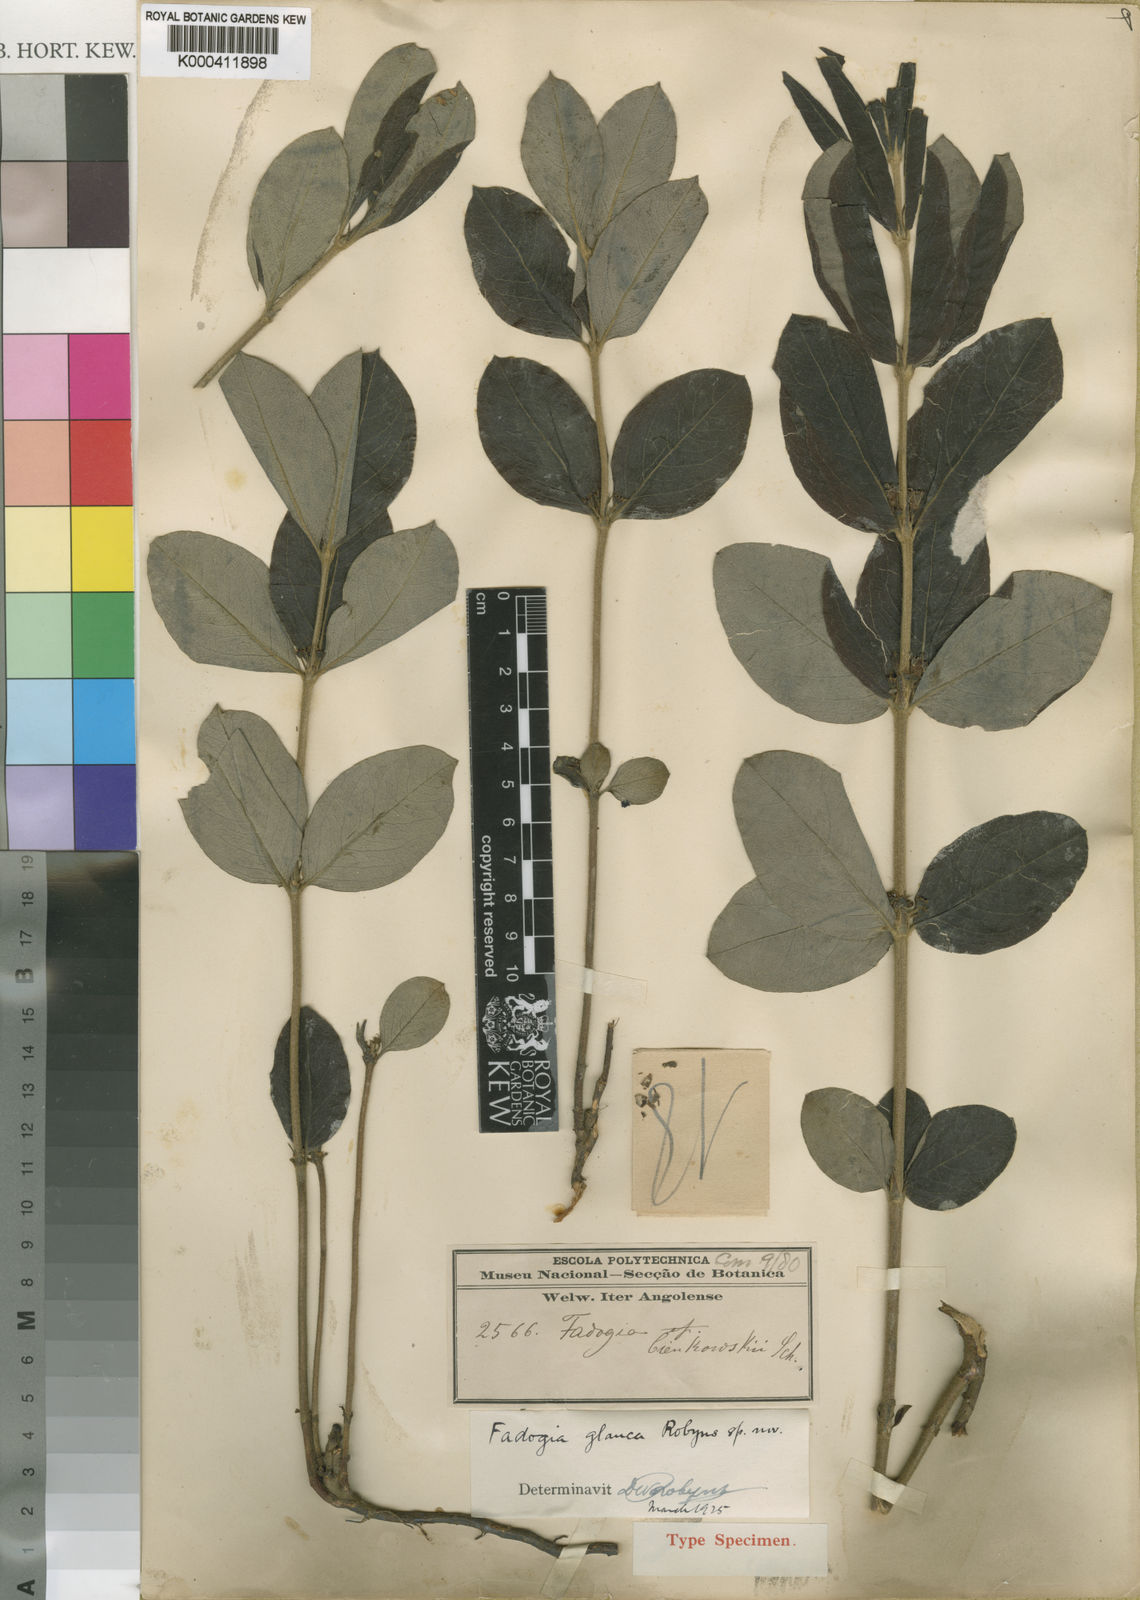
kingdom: Plantae
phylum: Tracheophyta
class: Magnoliopsida
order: Gentianales
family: Rubiaceae
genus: Fadogia
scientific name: Fadogia tetraquetra
